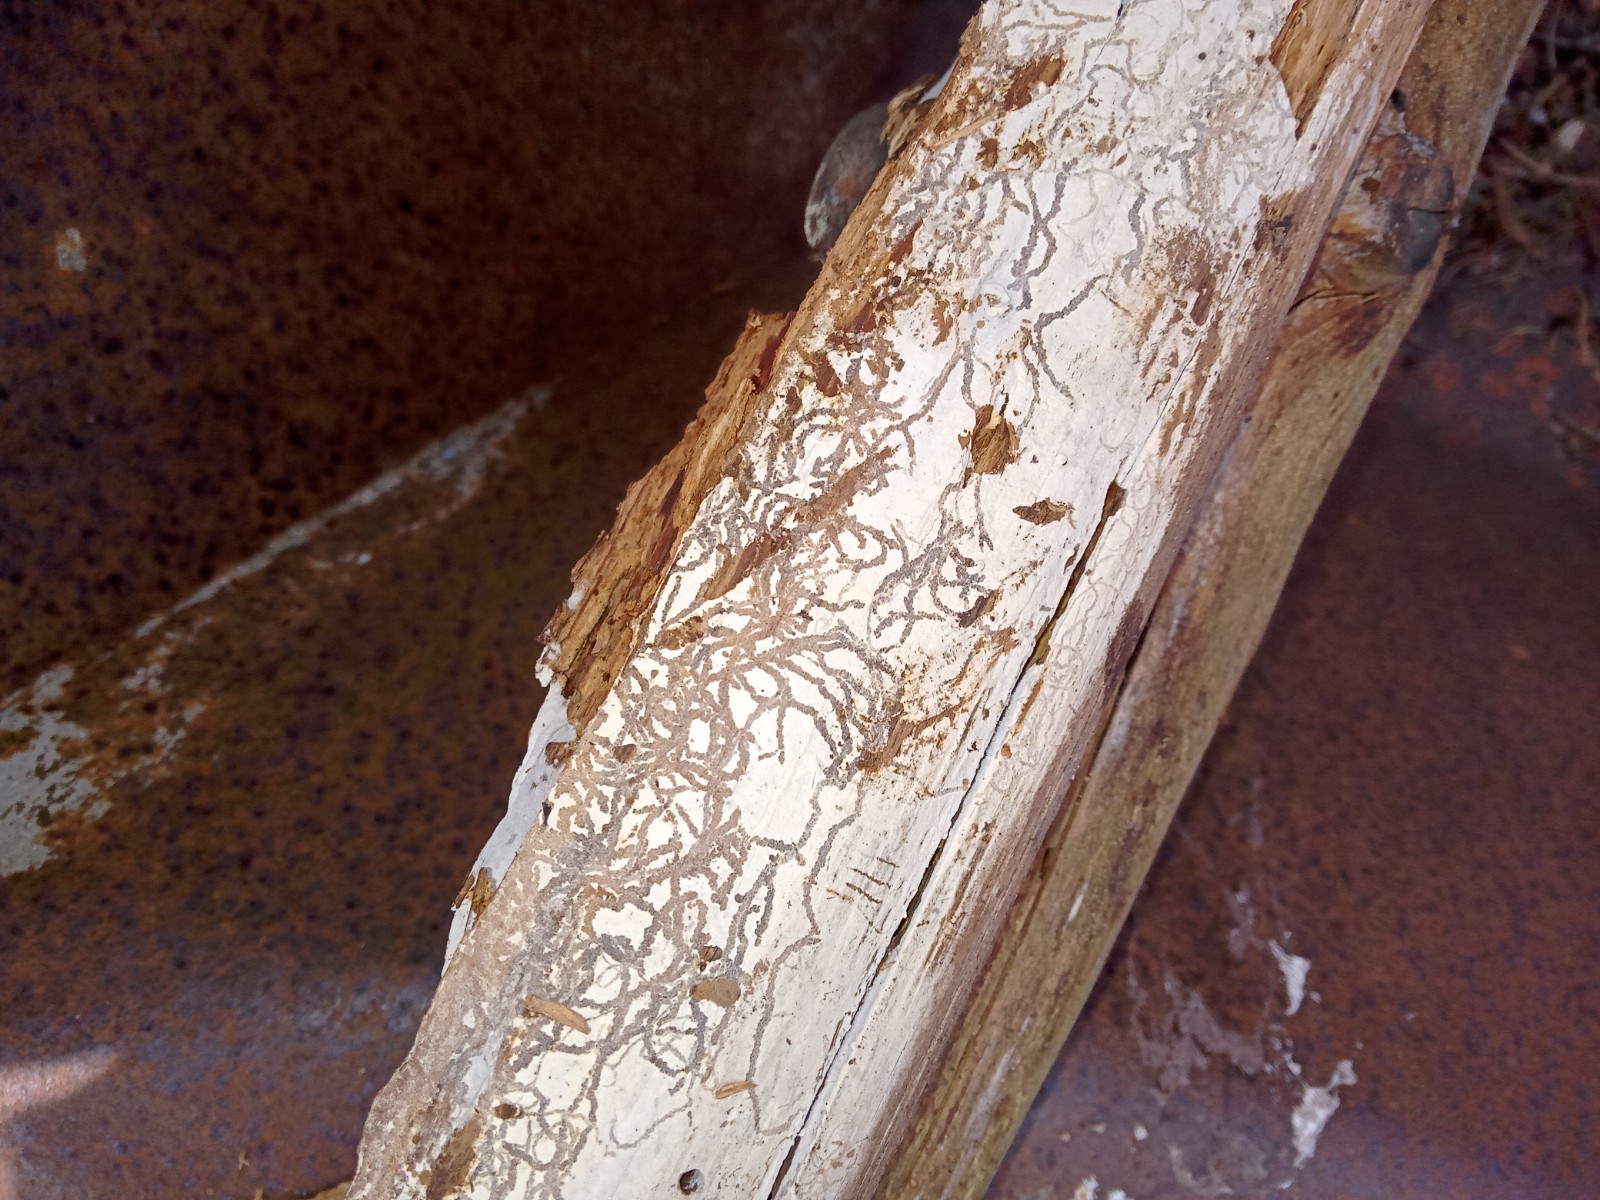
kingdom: Fungi
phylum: Basidiomycota
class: Agaricomycetes
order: Corticiales
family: Corticiaceae
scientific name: Corticiaceae
